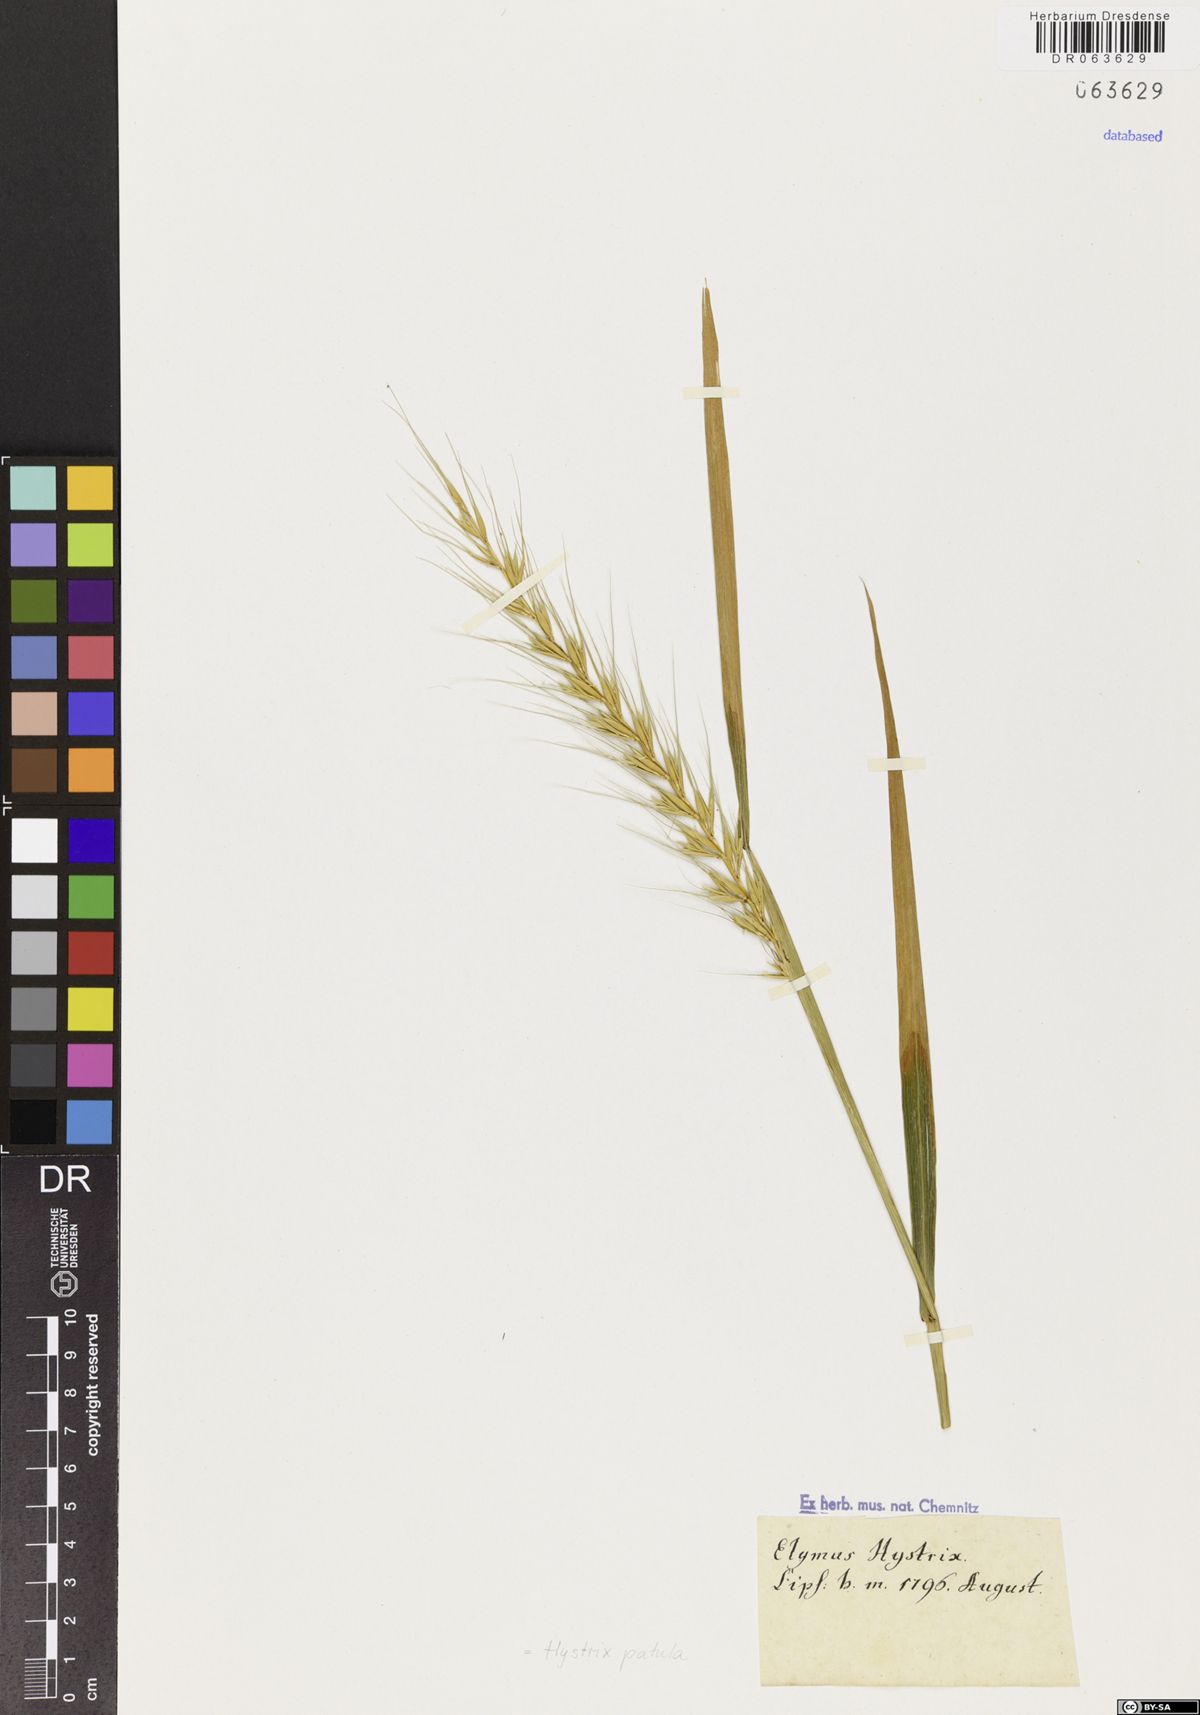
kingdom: Plantae
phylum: Tracheophyta
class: Liliopsida
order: Poales
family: Poaceae
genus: Elymus
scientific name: Elymus hystrix
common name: Bottlebrush grass
